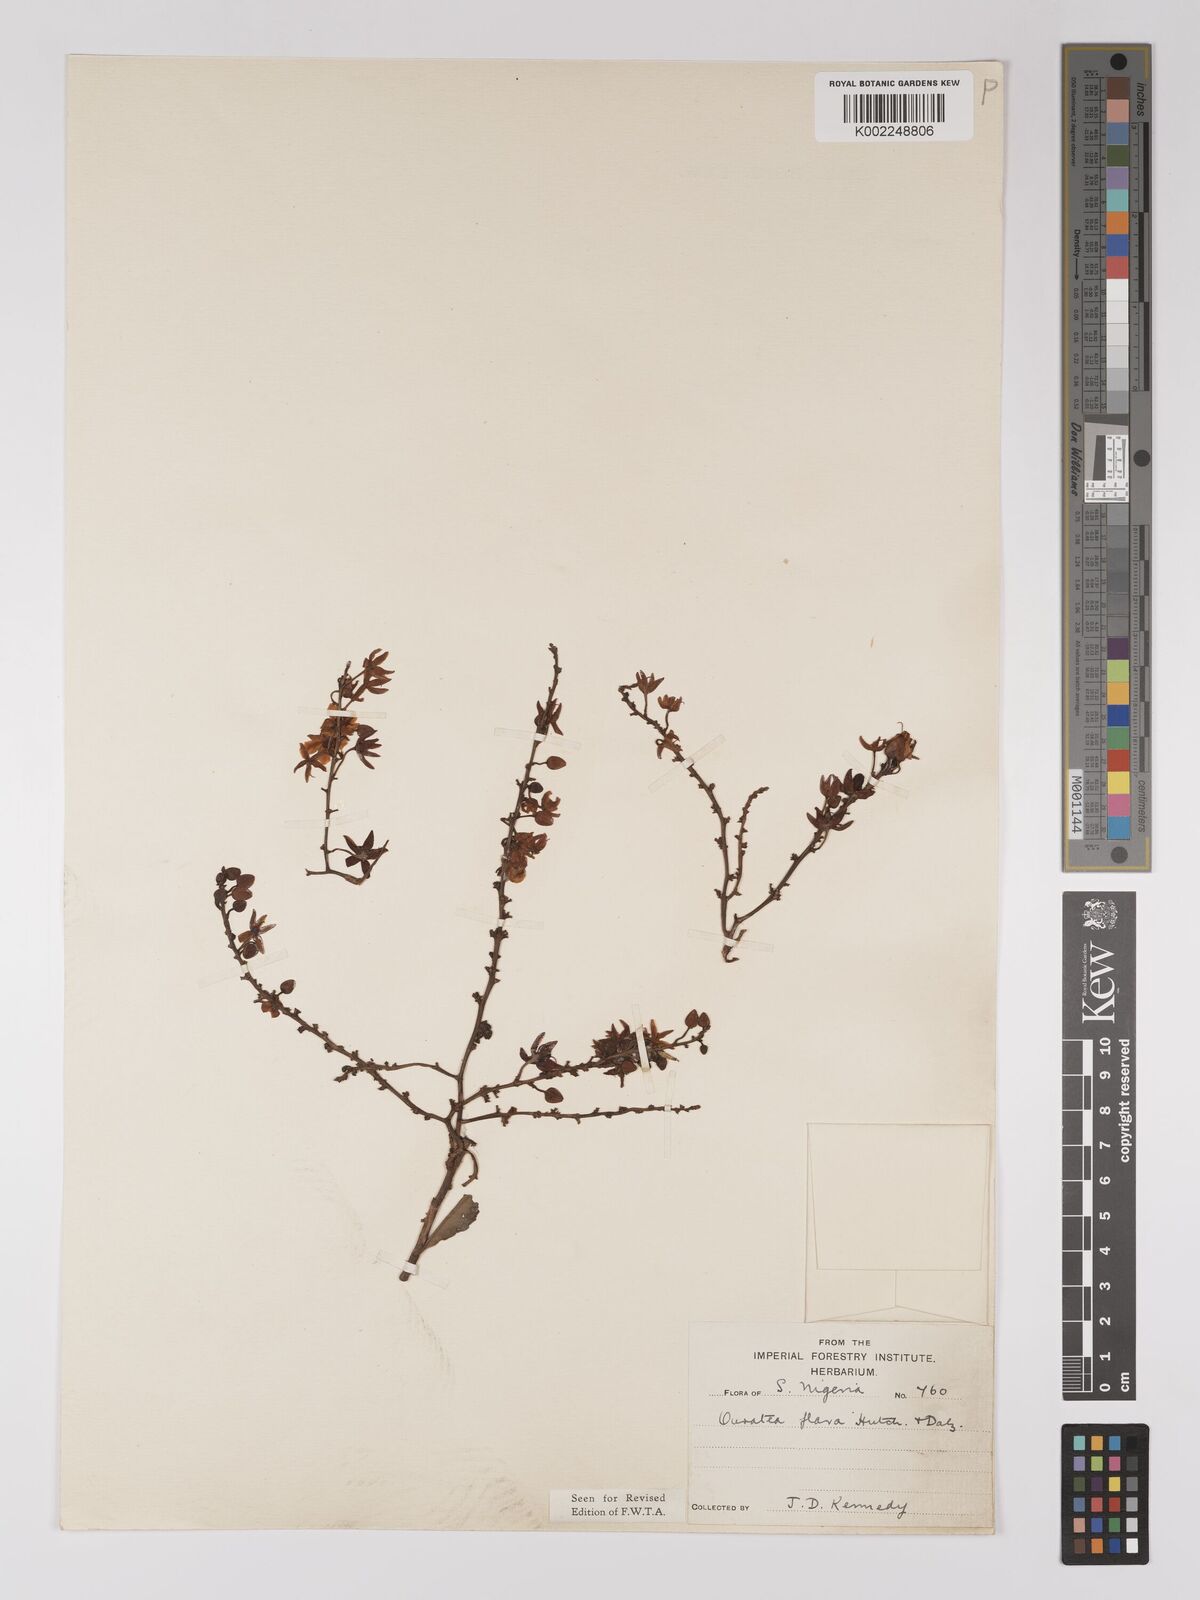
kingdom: Plantae
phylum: Tracheophyta
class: Magnoliopsida
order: Malpighiales
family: Ochnaceae
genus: Campylospermum
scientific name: Campylospermum flavum
